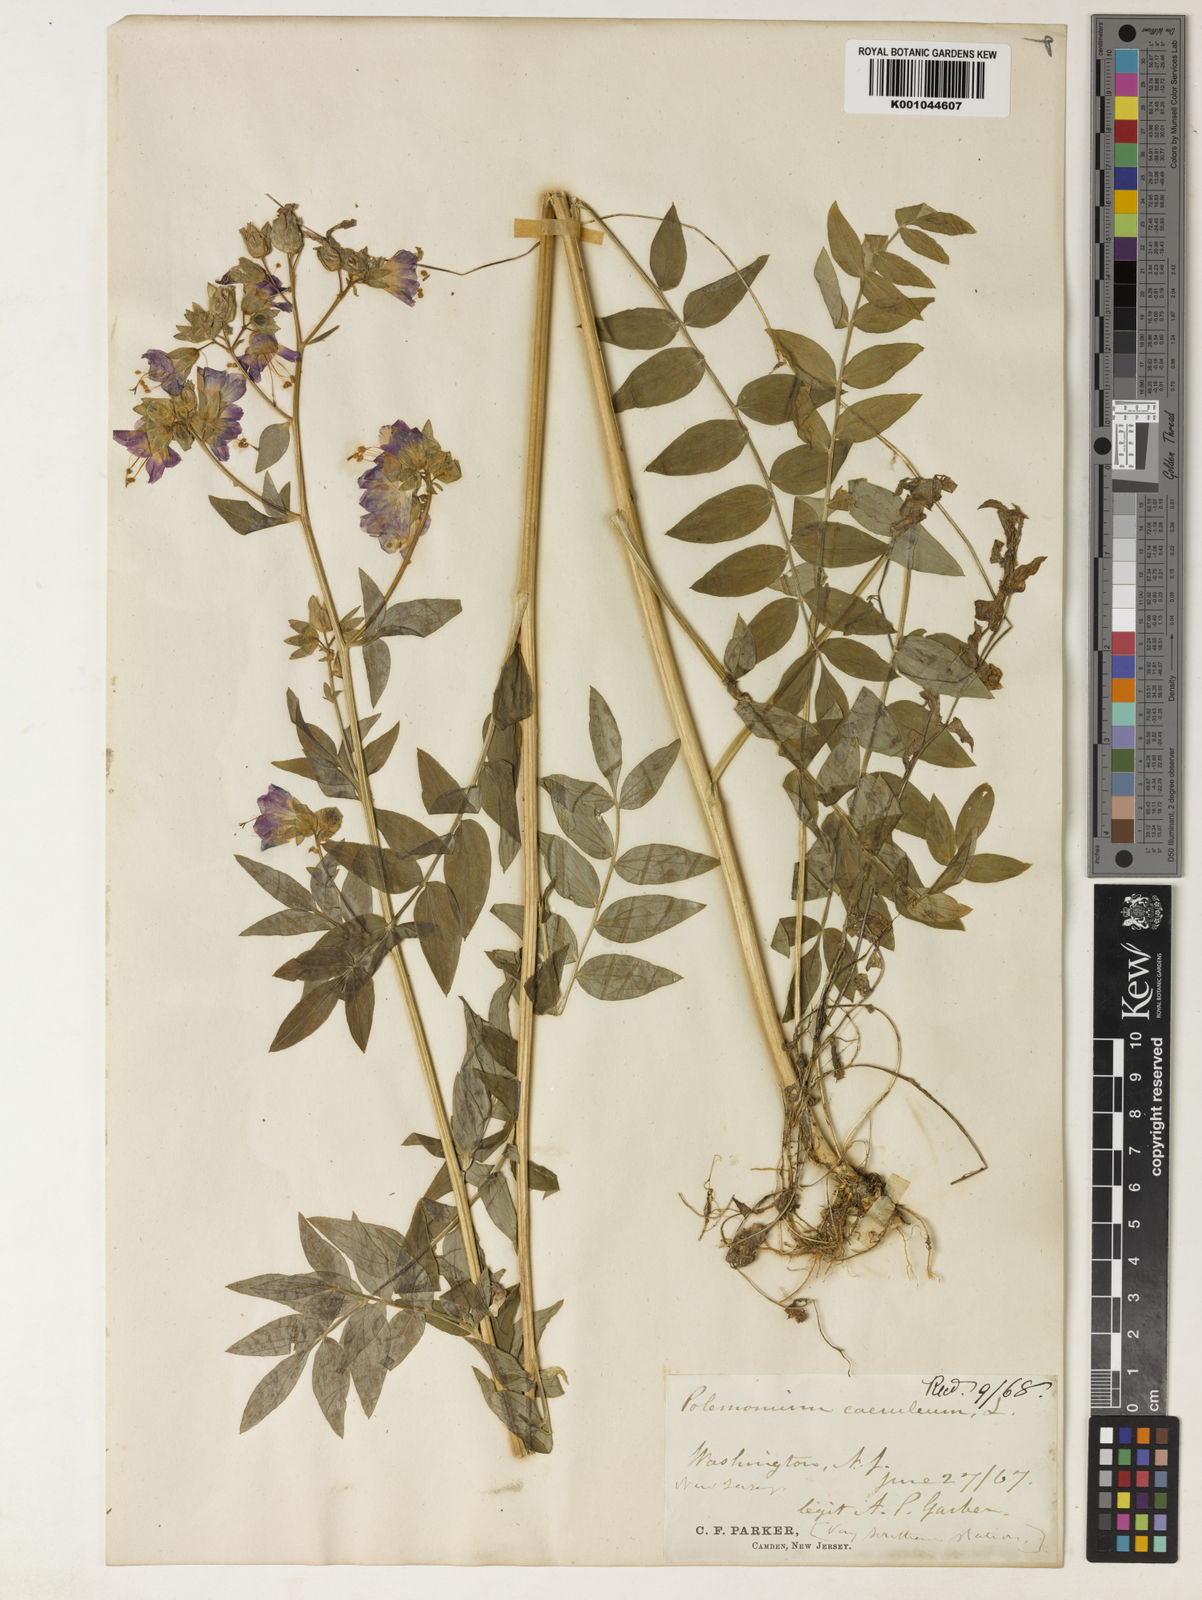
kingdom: Plantae
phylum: Tracheophyta
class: Magnoliopsida
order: Ericales
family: Polemoniaceae
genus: Polemonium
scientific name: Polemonium caeruleum
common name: Jacob's-ladder
